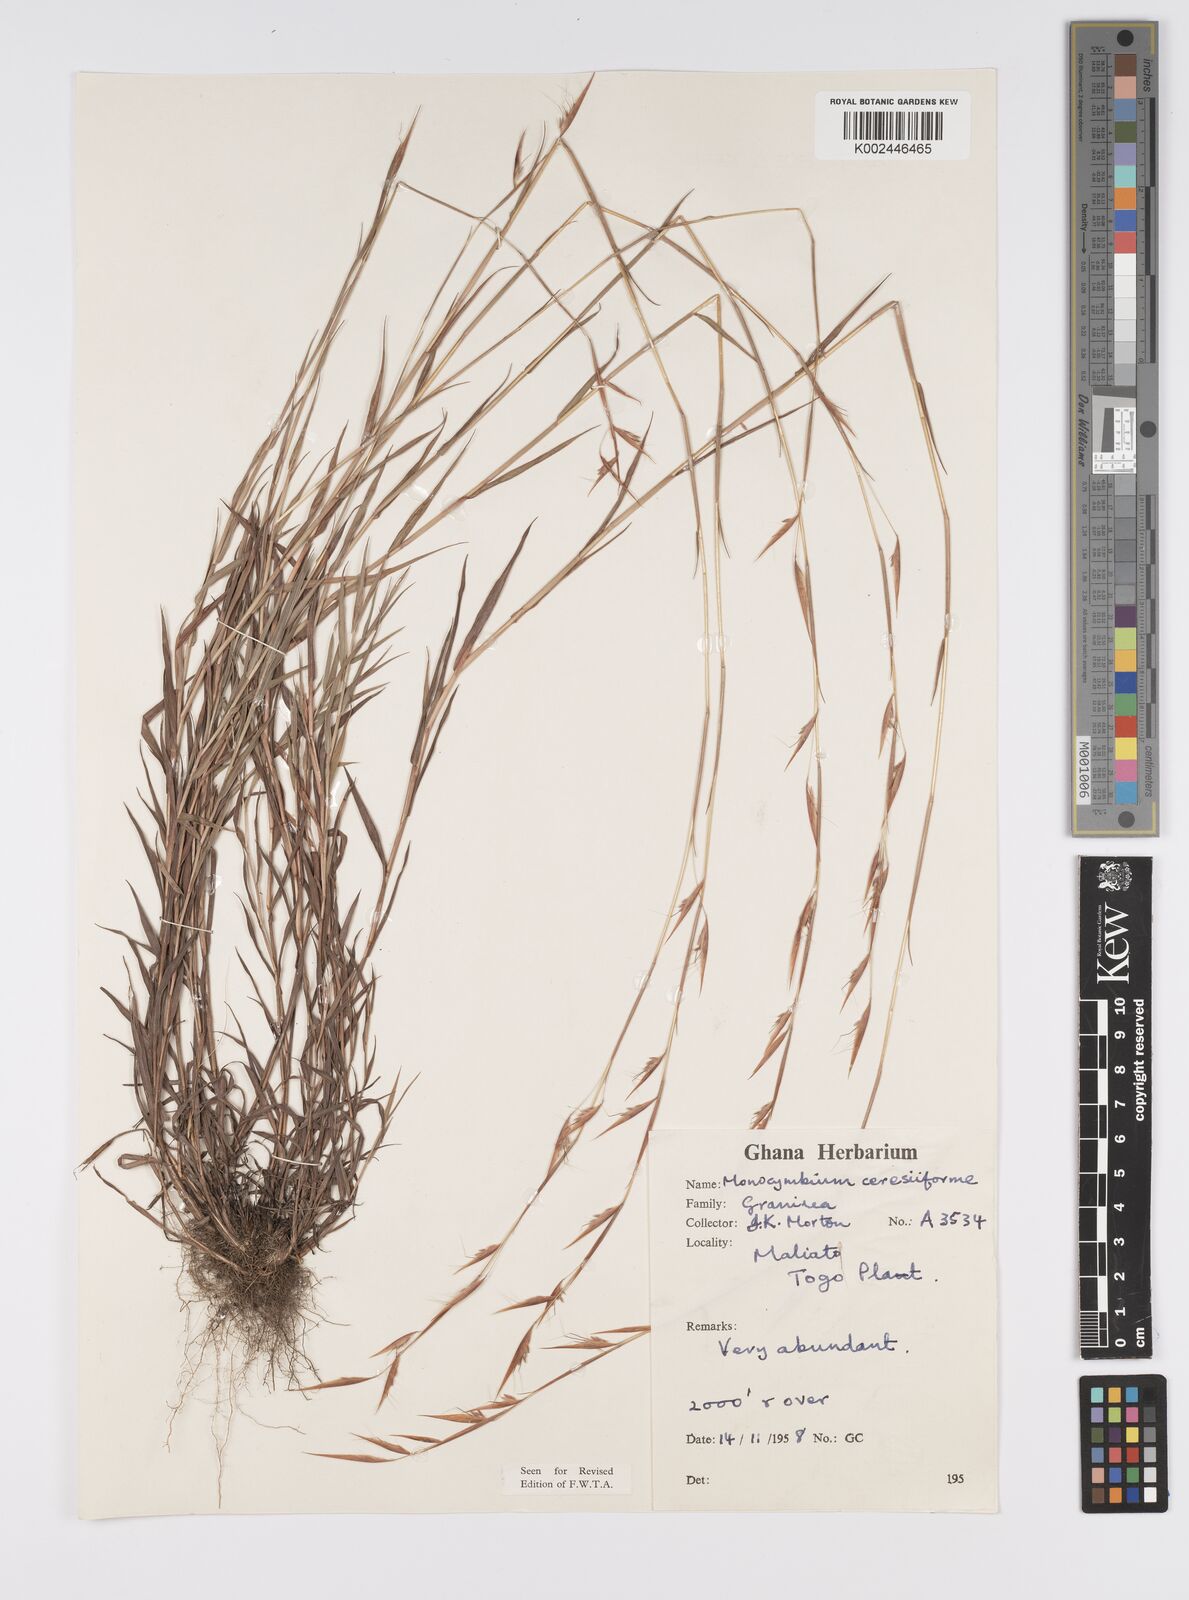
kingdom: Plantae
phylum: Tracheophyta
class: Liliopsida
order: Poales
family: Poaceae
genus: Monocymbium
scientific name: Monocymbium ceresiiforme
